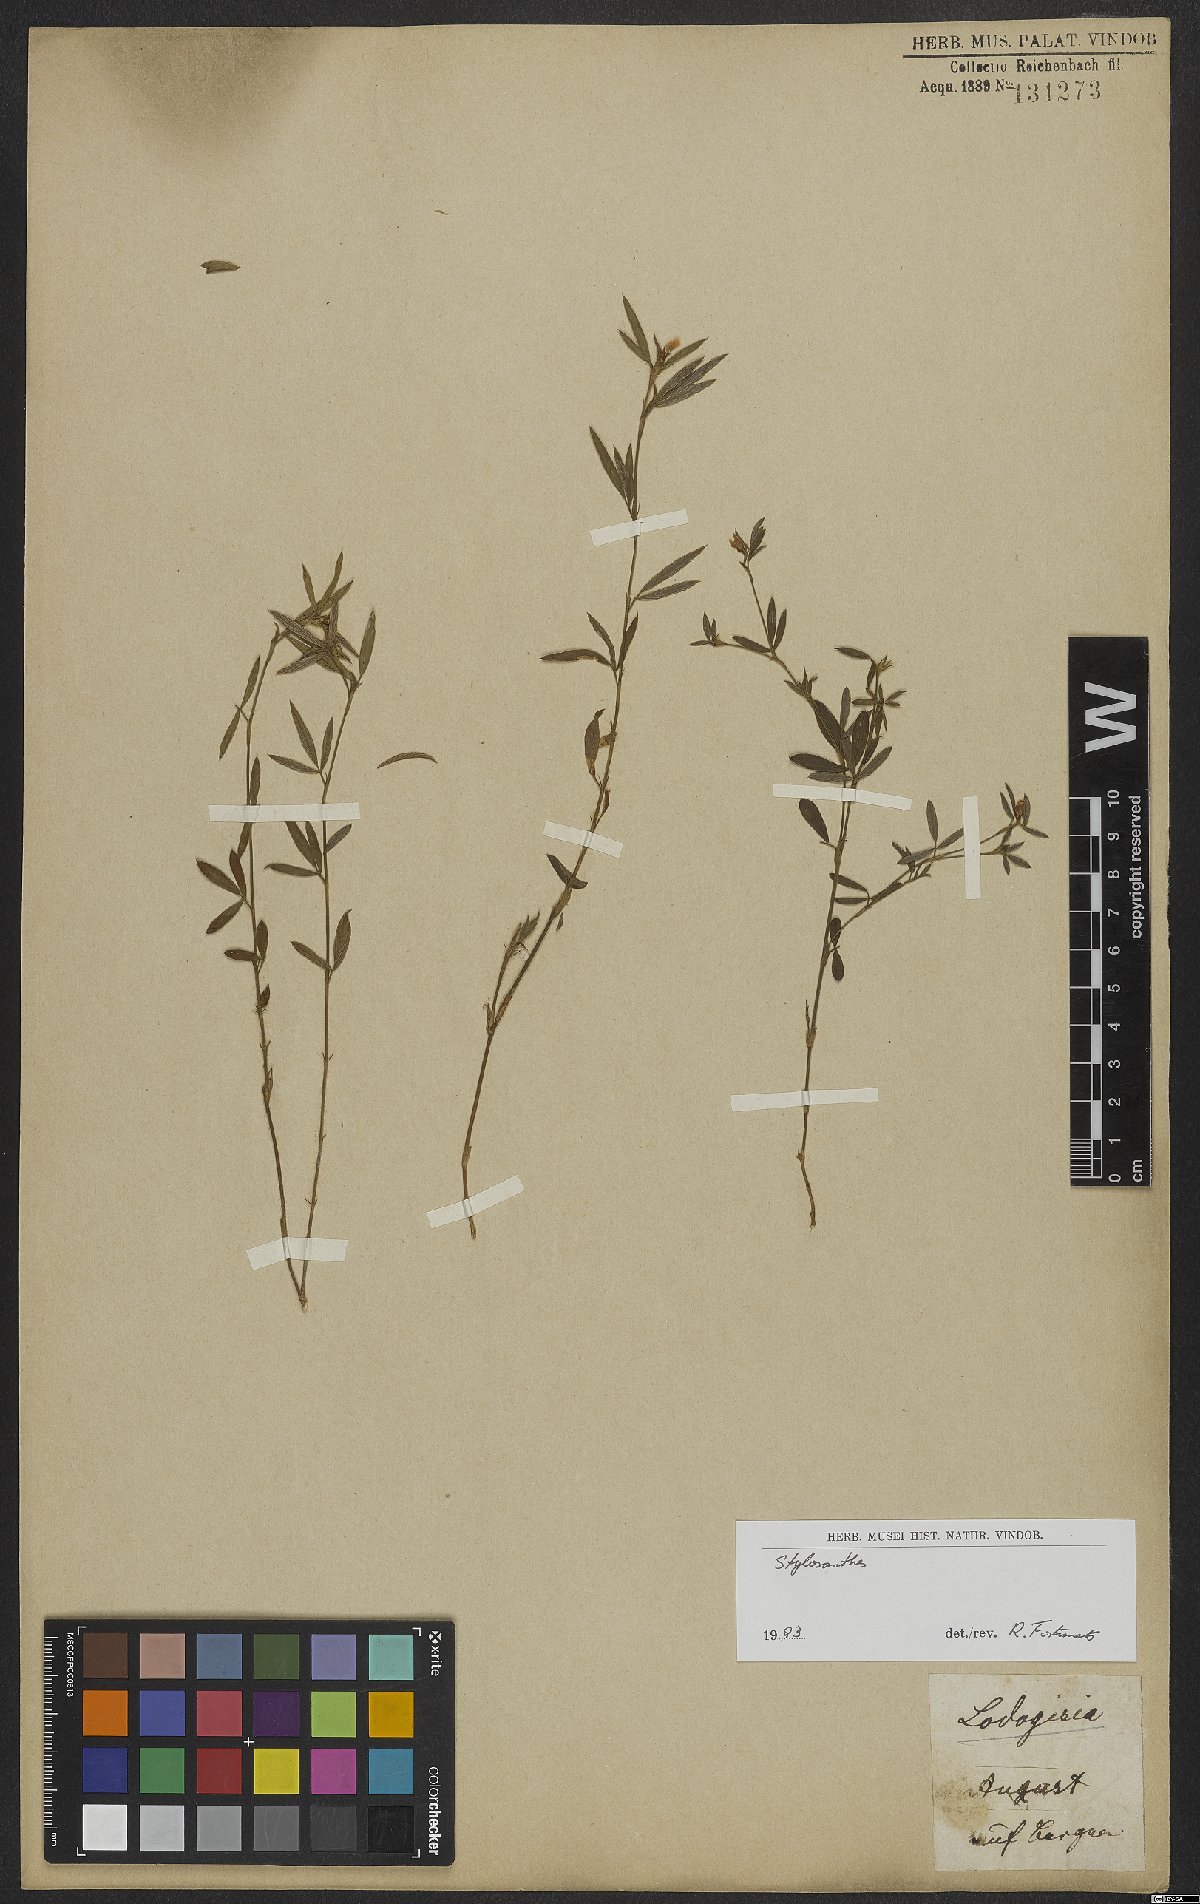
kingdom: Plantae
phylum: Tracheophyta
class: Magnoliopsida
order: Fabales
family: Fabaceae
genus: Stylosanthes
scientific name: Stylosanthes
